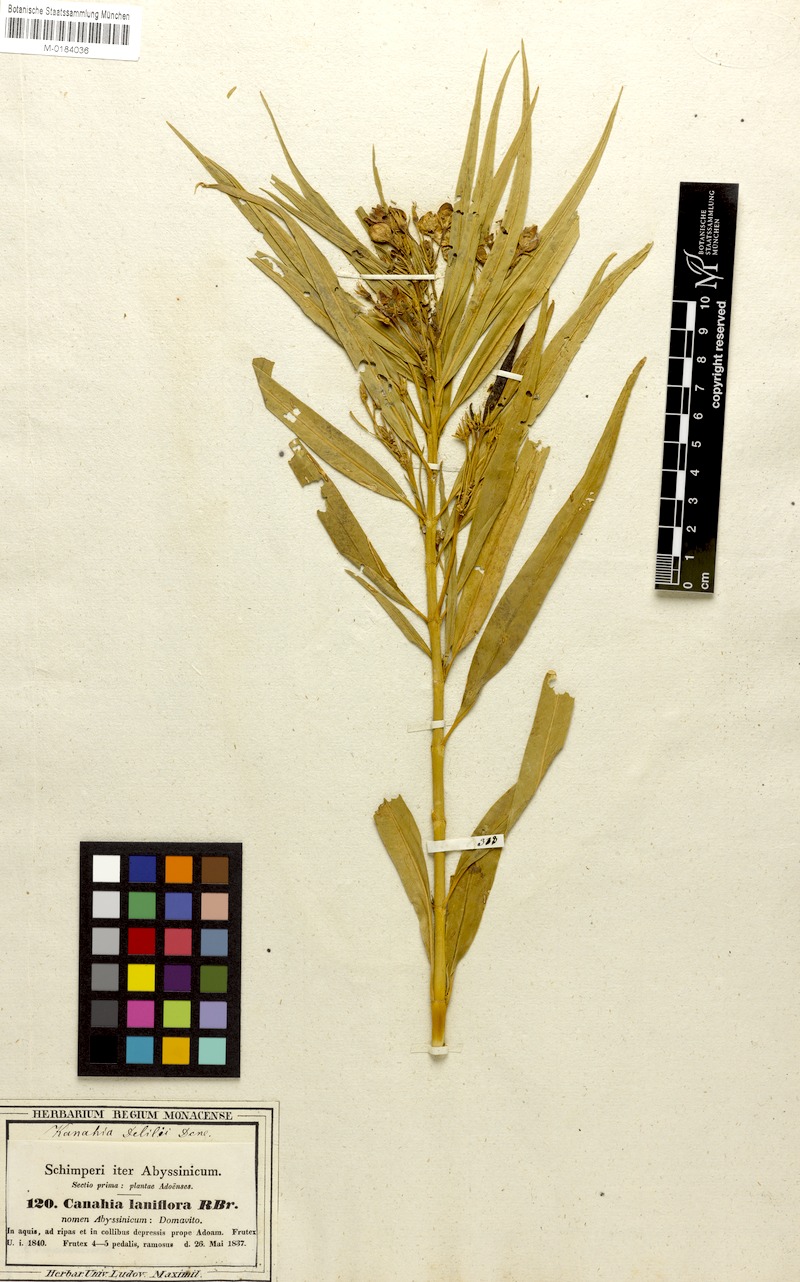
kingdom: Plantae
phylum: Tracheophyta
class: Magnoliopsida
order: Gentianales
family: Apocynaceae
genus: Kanahia
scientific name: Kanahia laniflora
